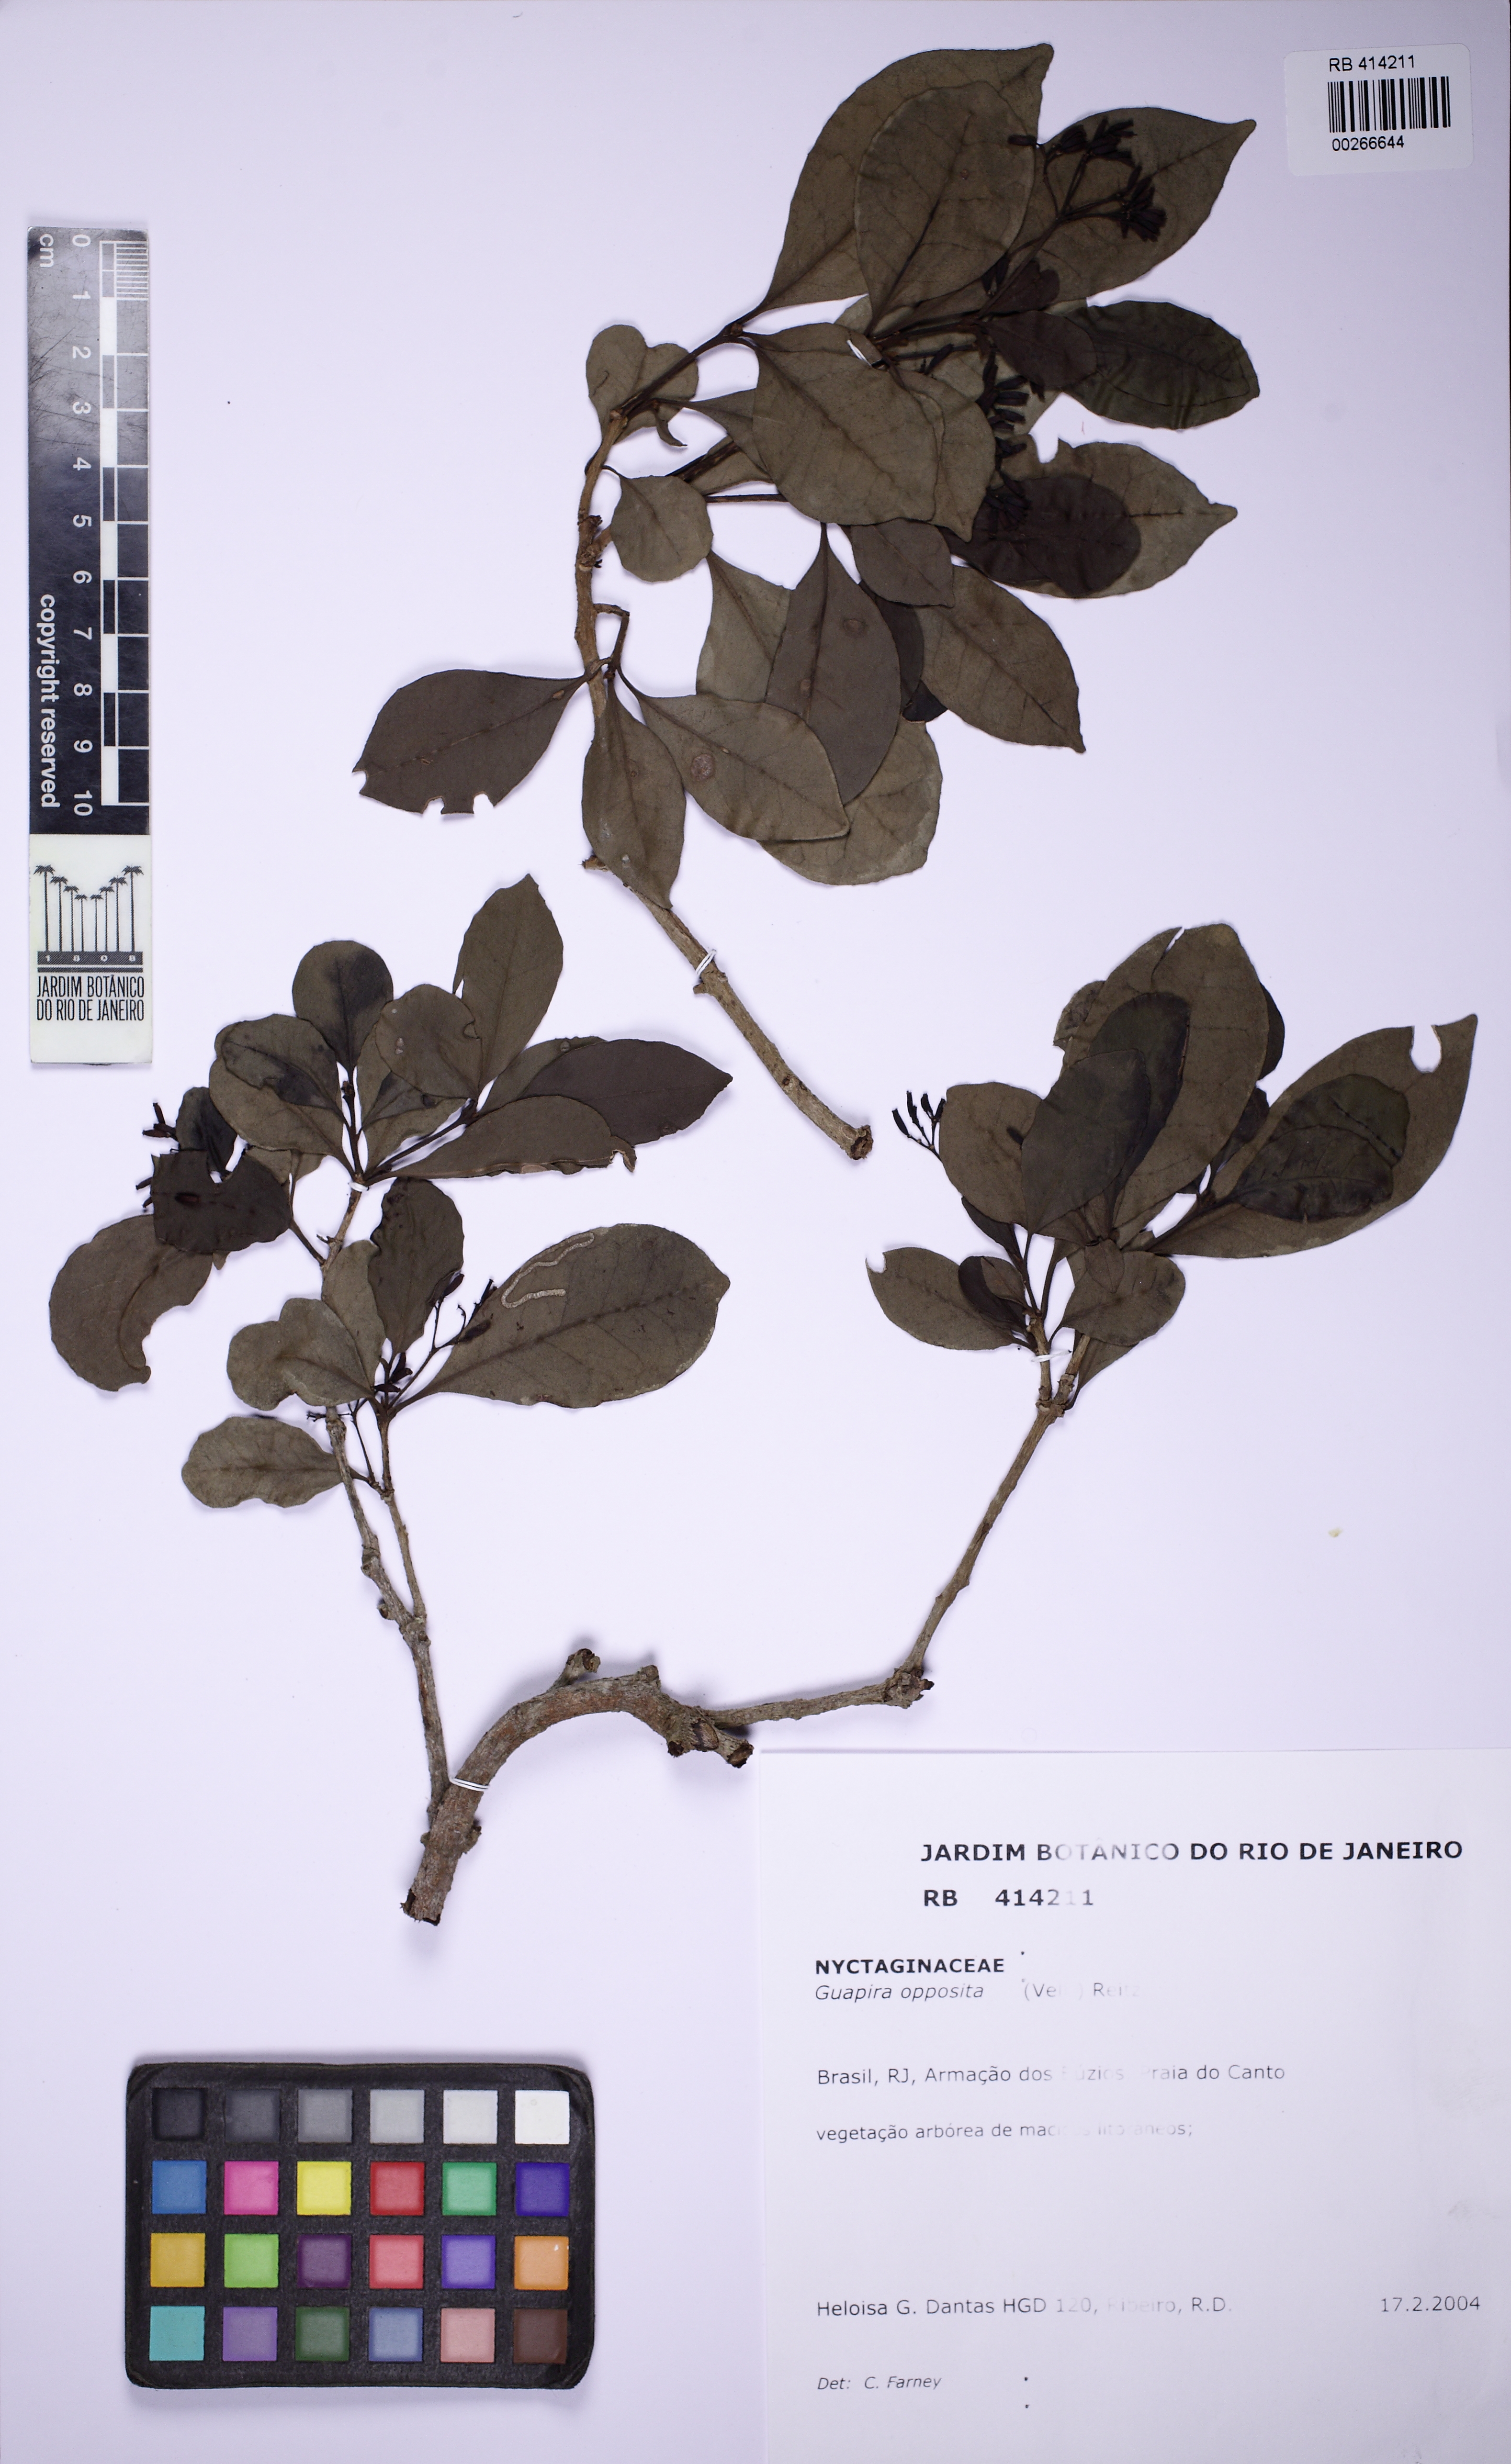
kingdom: Plantae
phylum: Tracheophyta
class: Magnoliopsida
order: Caryophyllales
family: Nyctaginaceae
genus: Guapira
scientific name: Guapira opposita
